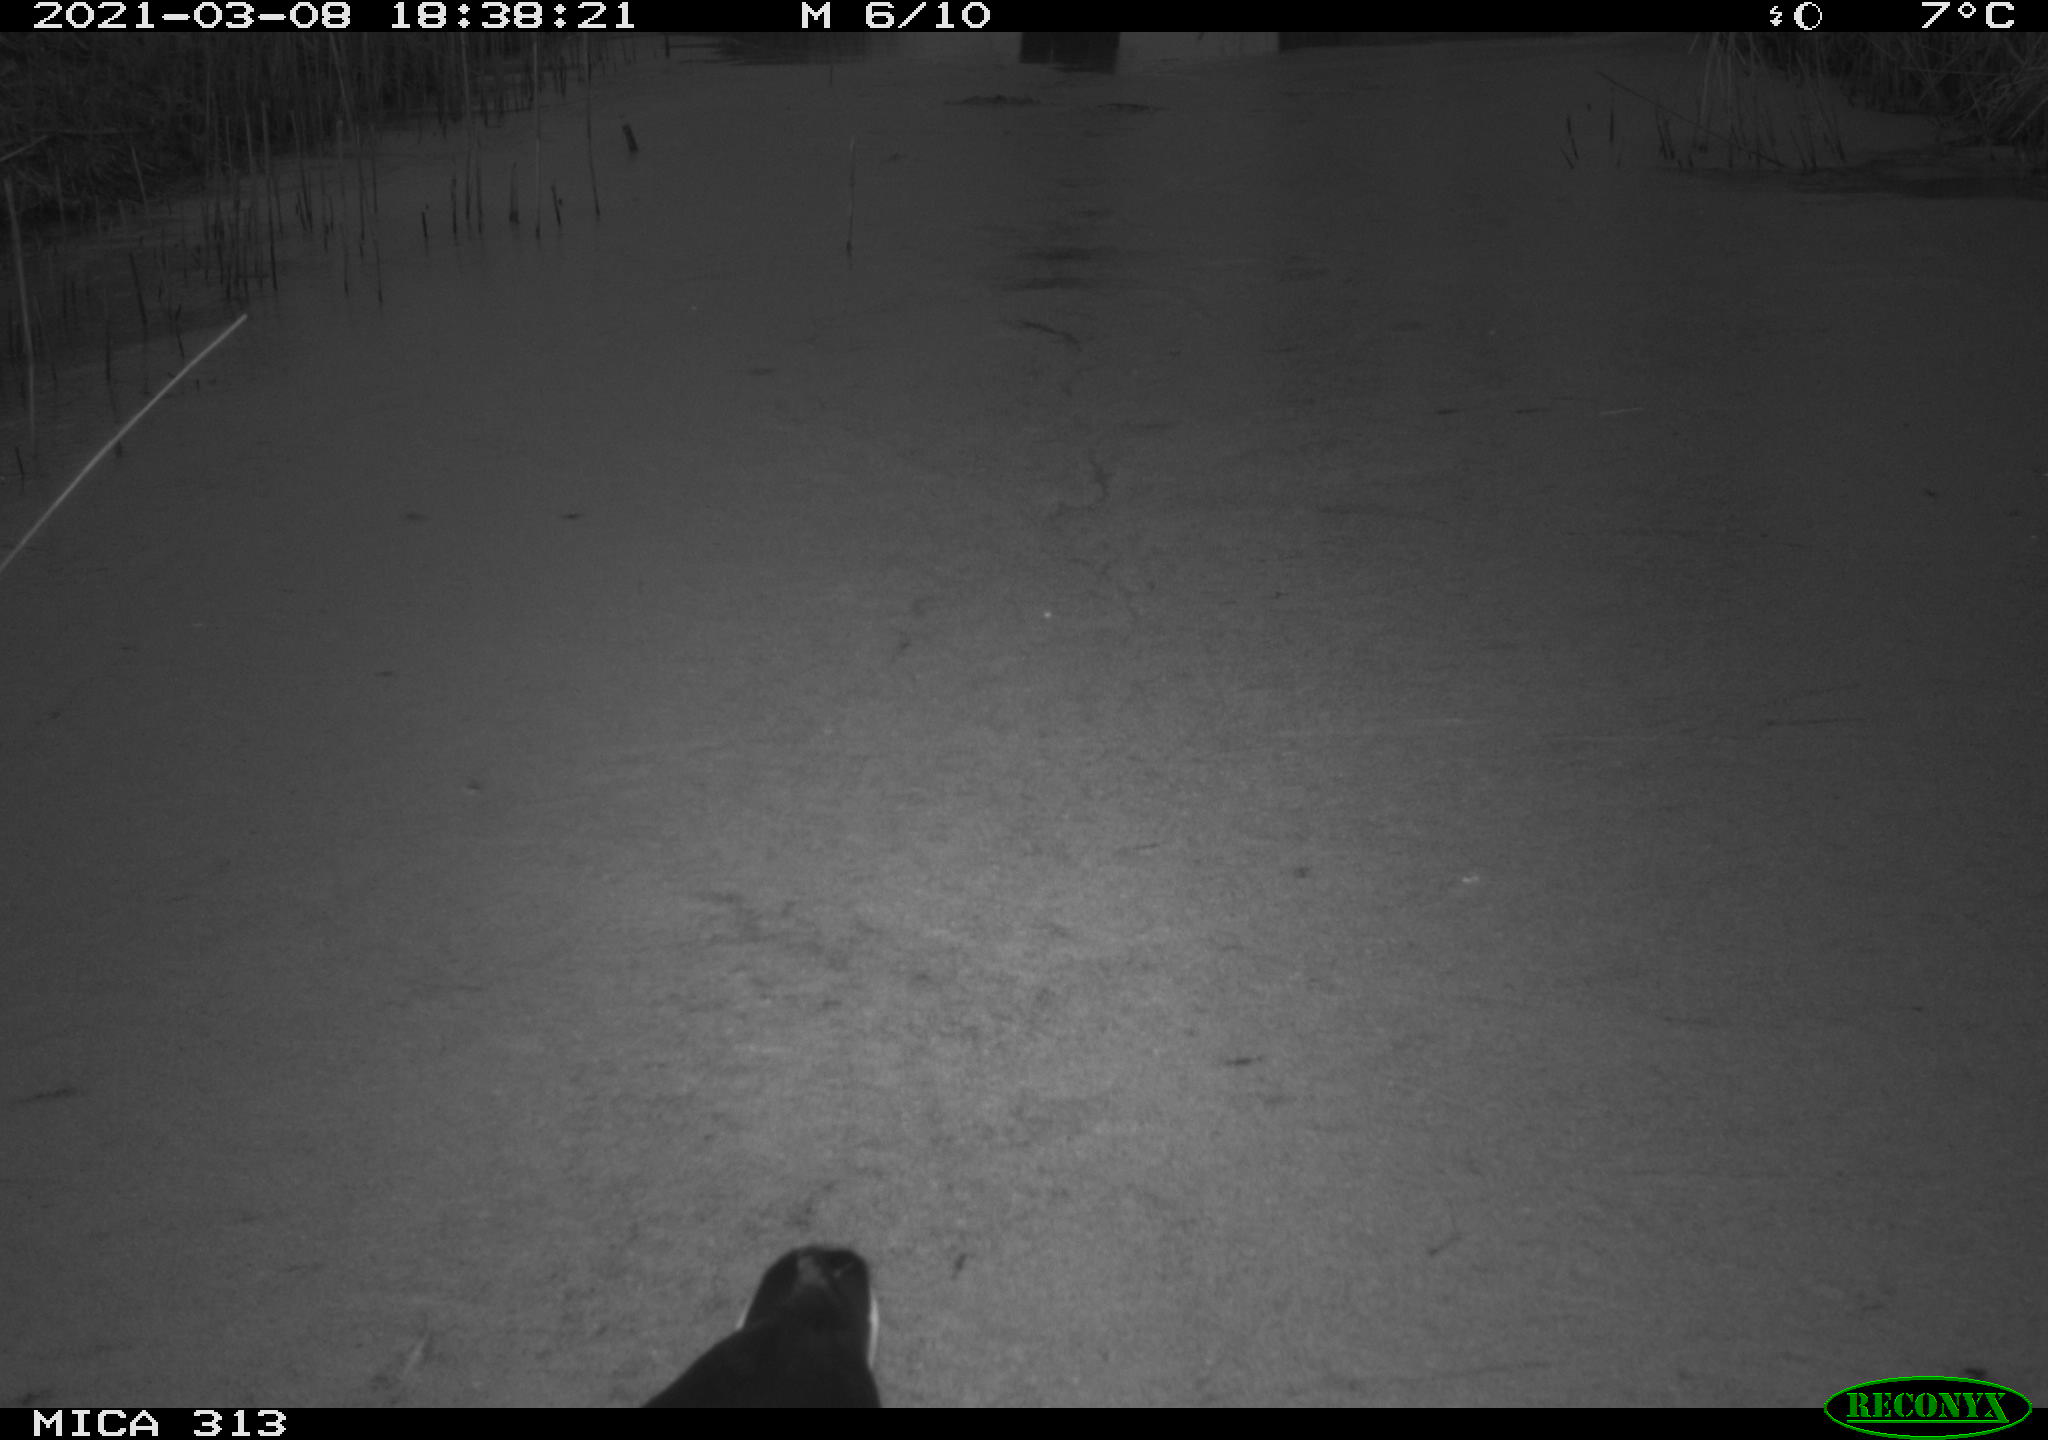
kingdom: Animalia
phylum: Chordata
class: Aves
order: Gruiformes
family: Rallidae
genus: Gallinula
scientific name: Gallinula chloropus
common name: Common moorhen
